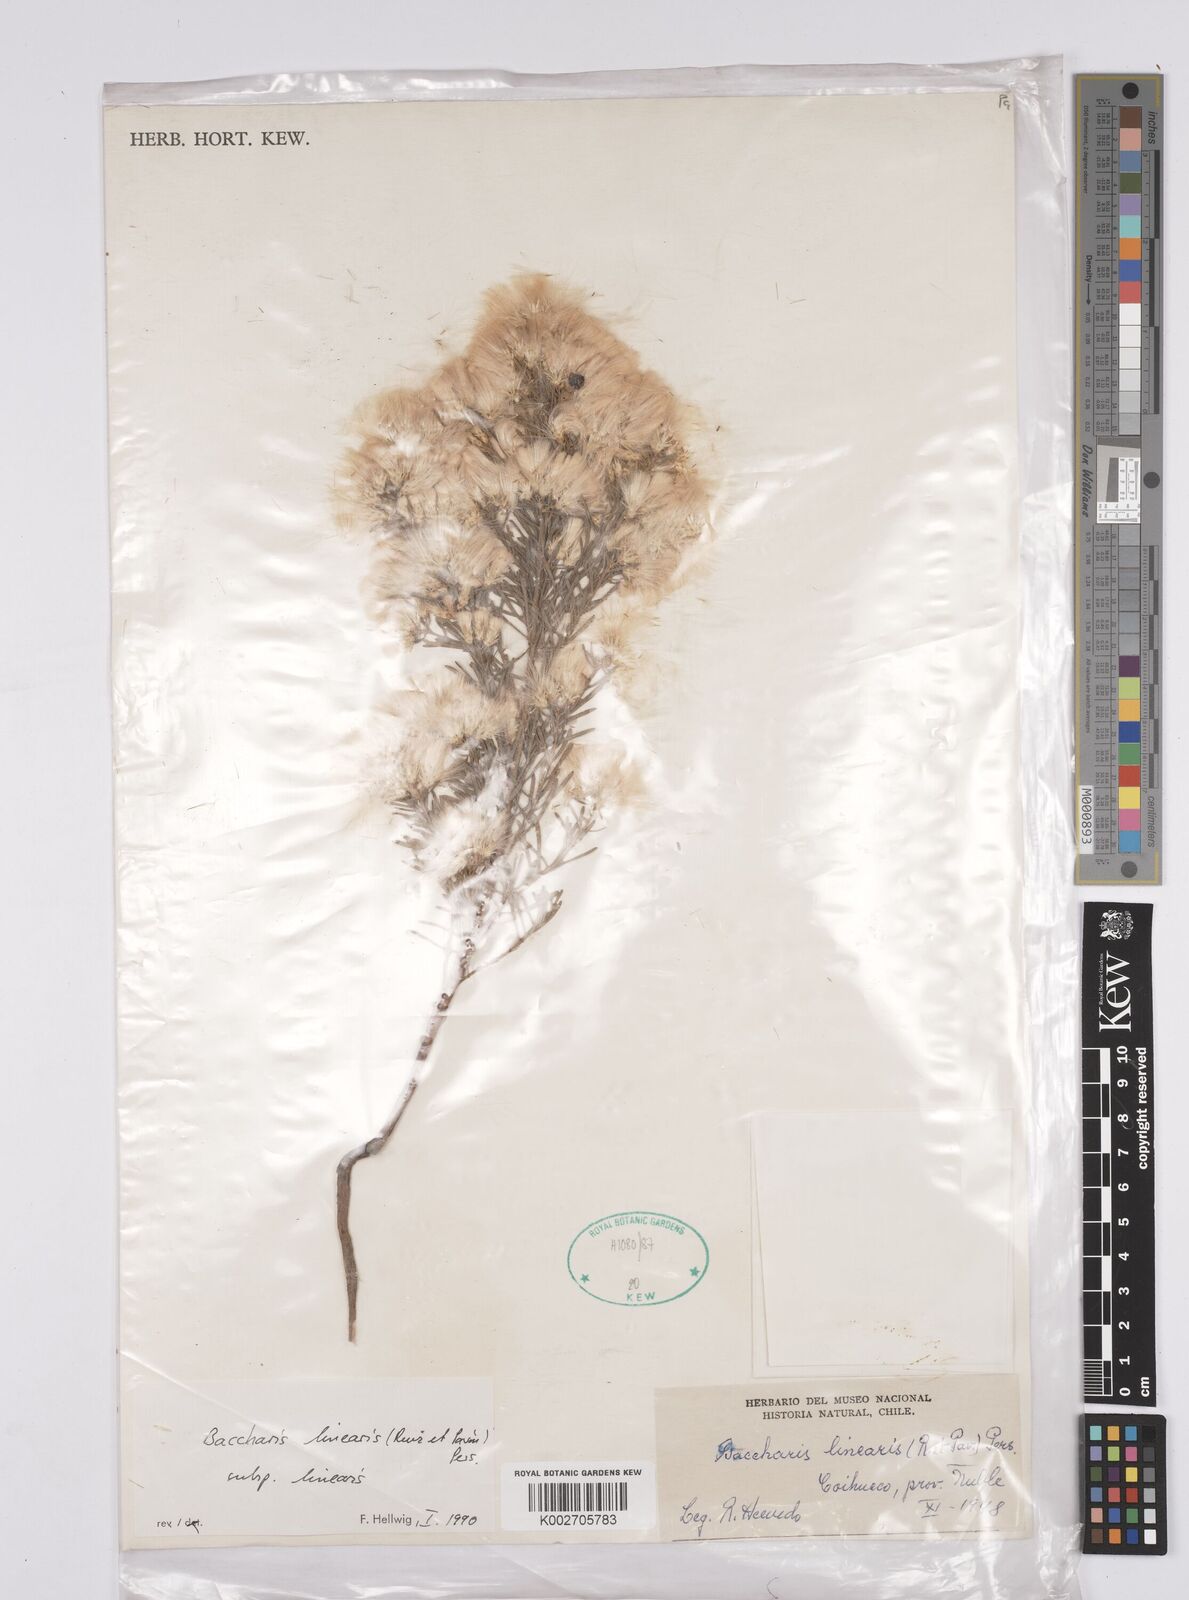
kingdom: Plantae
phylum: Tracheophyta
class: Magnoliopsida
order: Asterales
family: Asteraceae
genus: Baccharis
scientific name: Baccharis linearis
